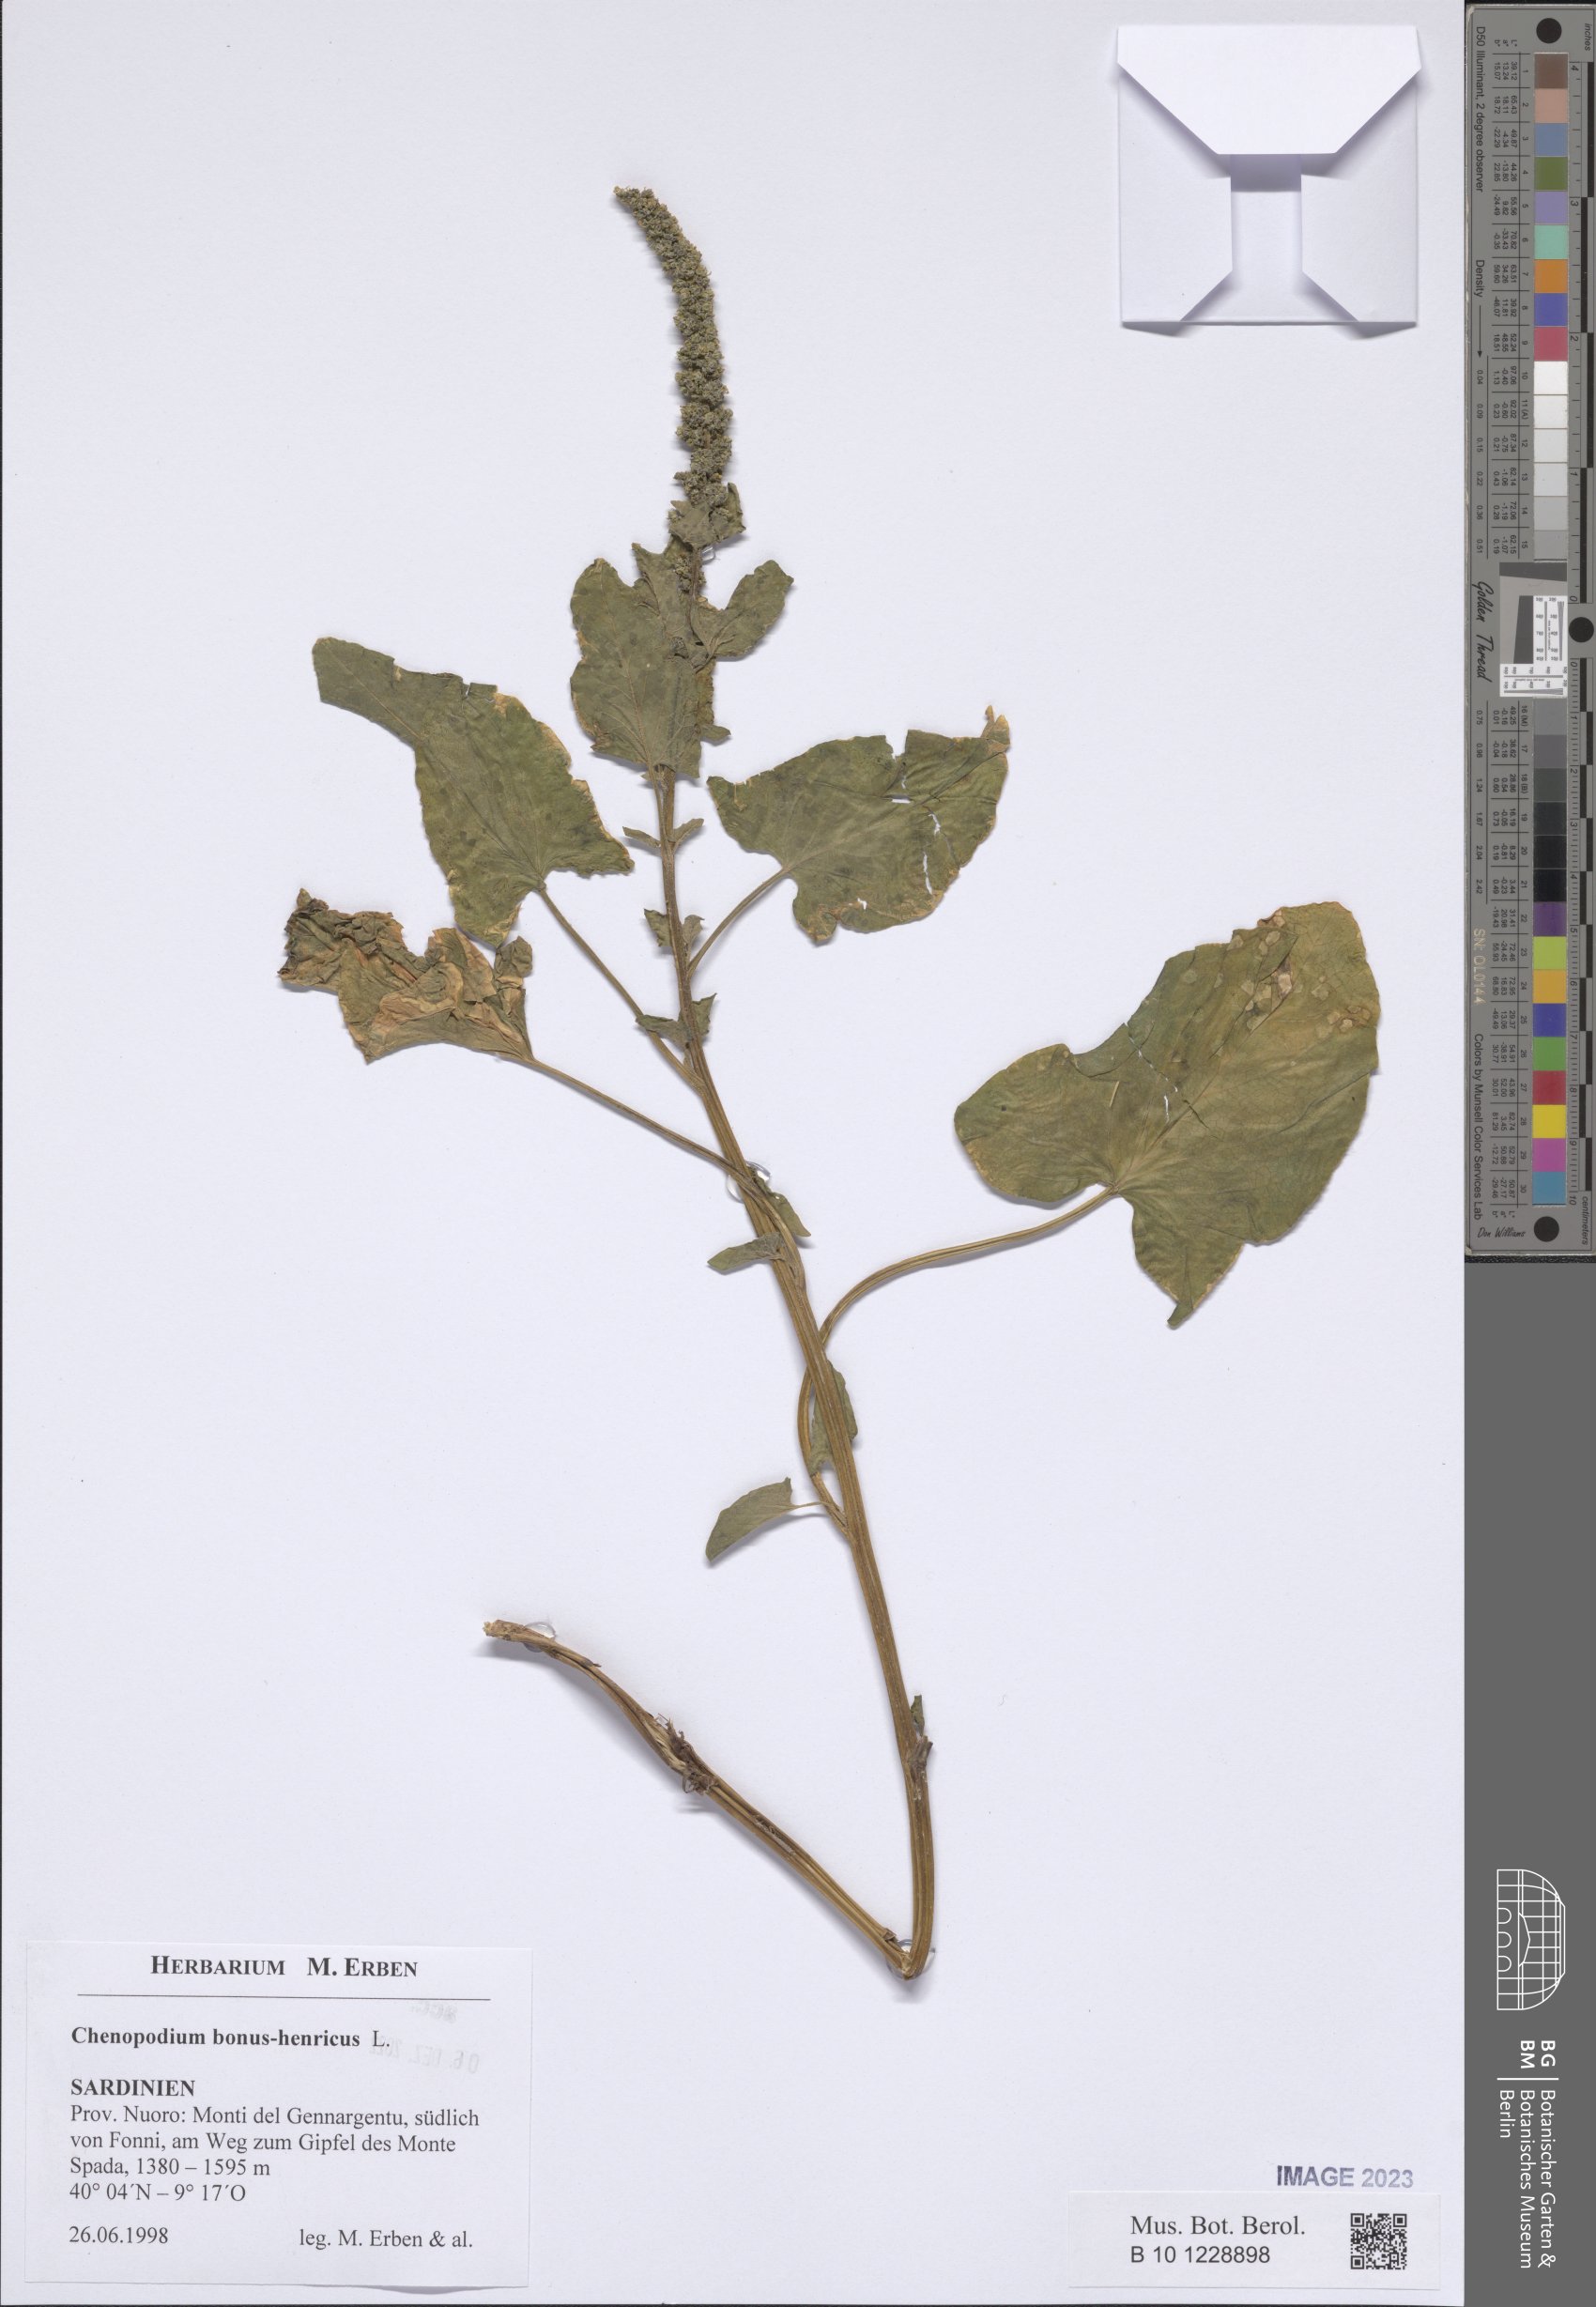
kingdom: Plantae
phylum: Tracheophyta
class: Magnoliopsida
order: Caryophyllales
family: Amaranthaceae
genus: Blitum
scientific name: Blitum bonus-henricus
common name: Good king henry
